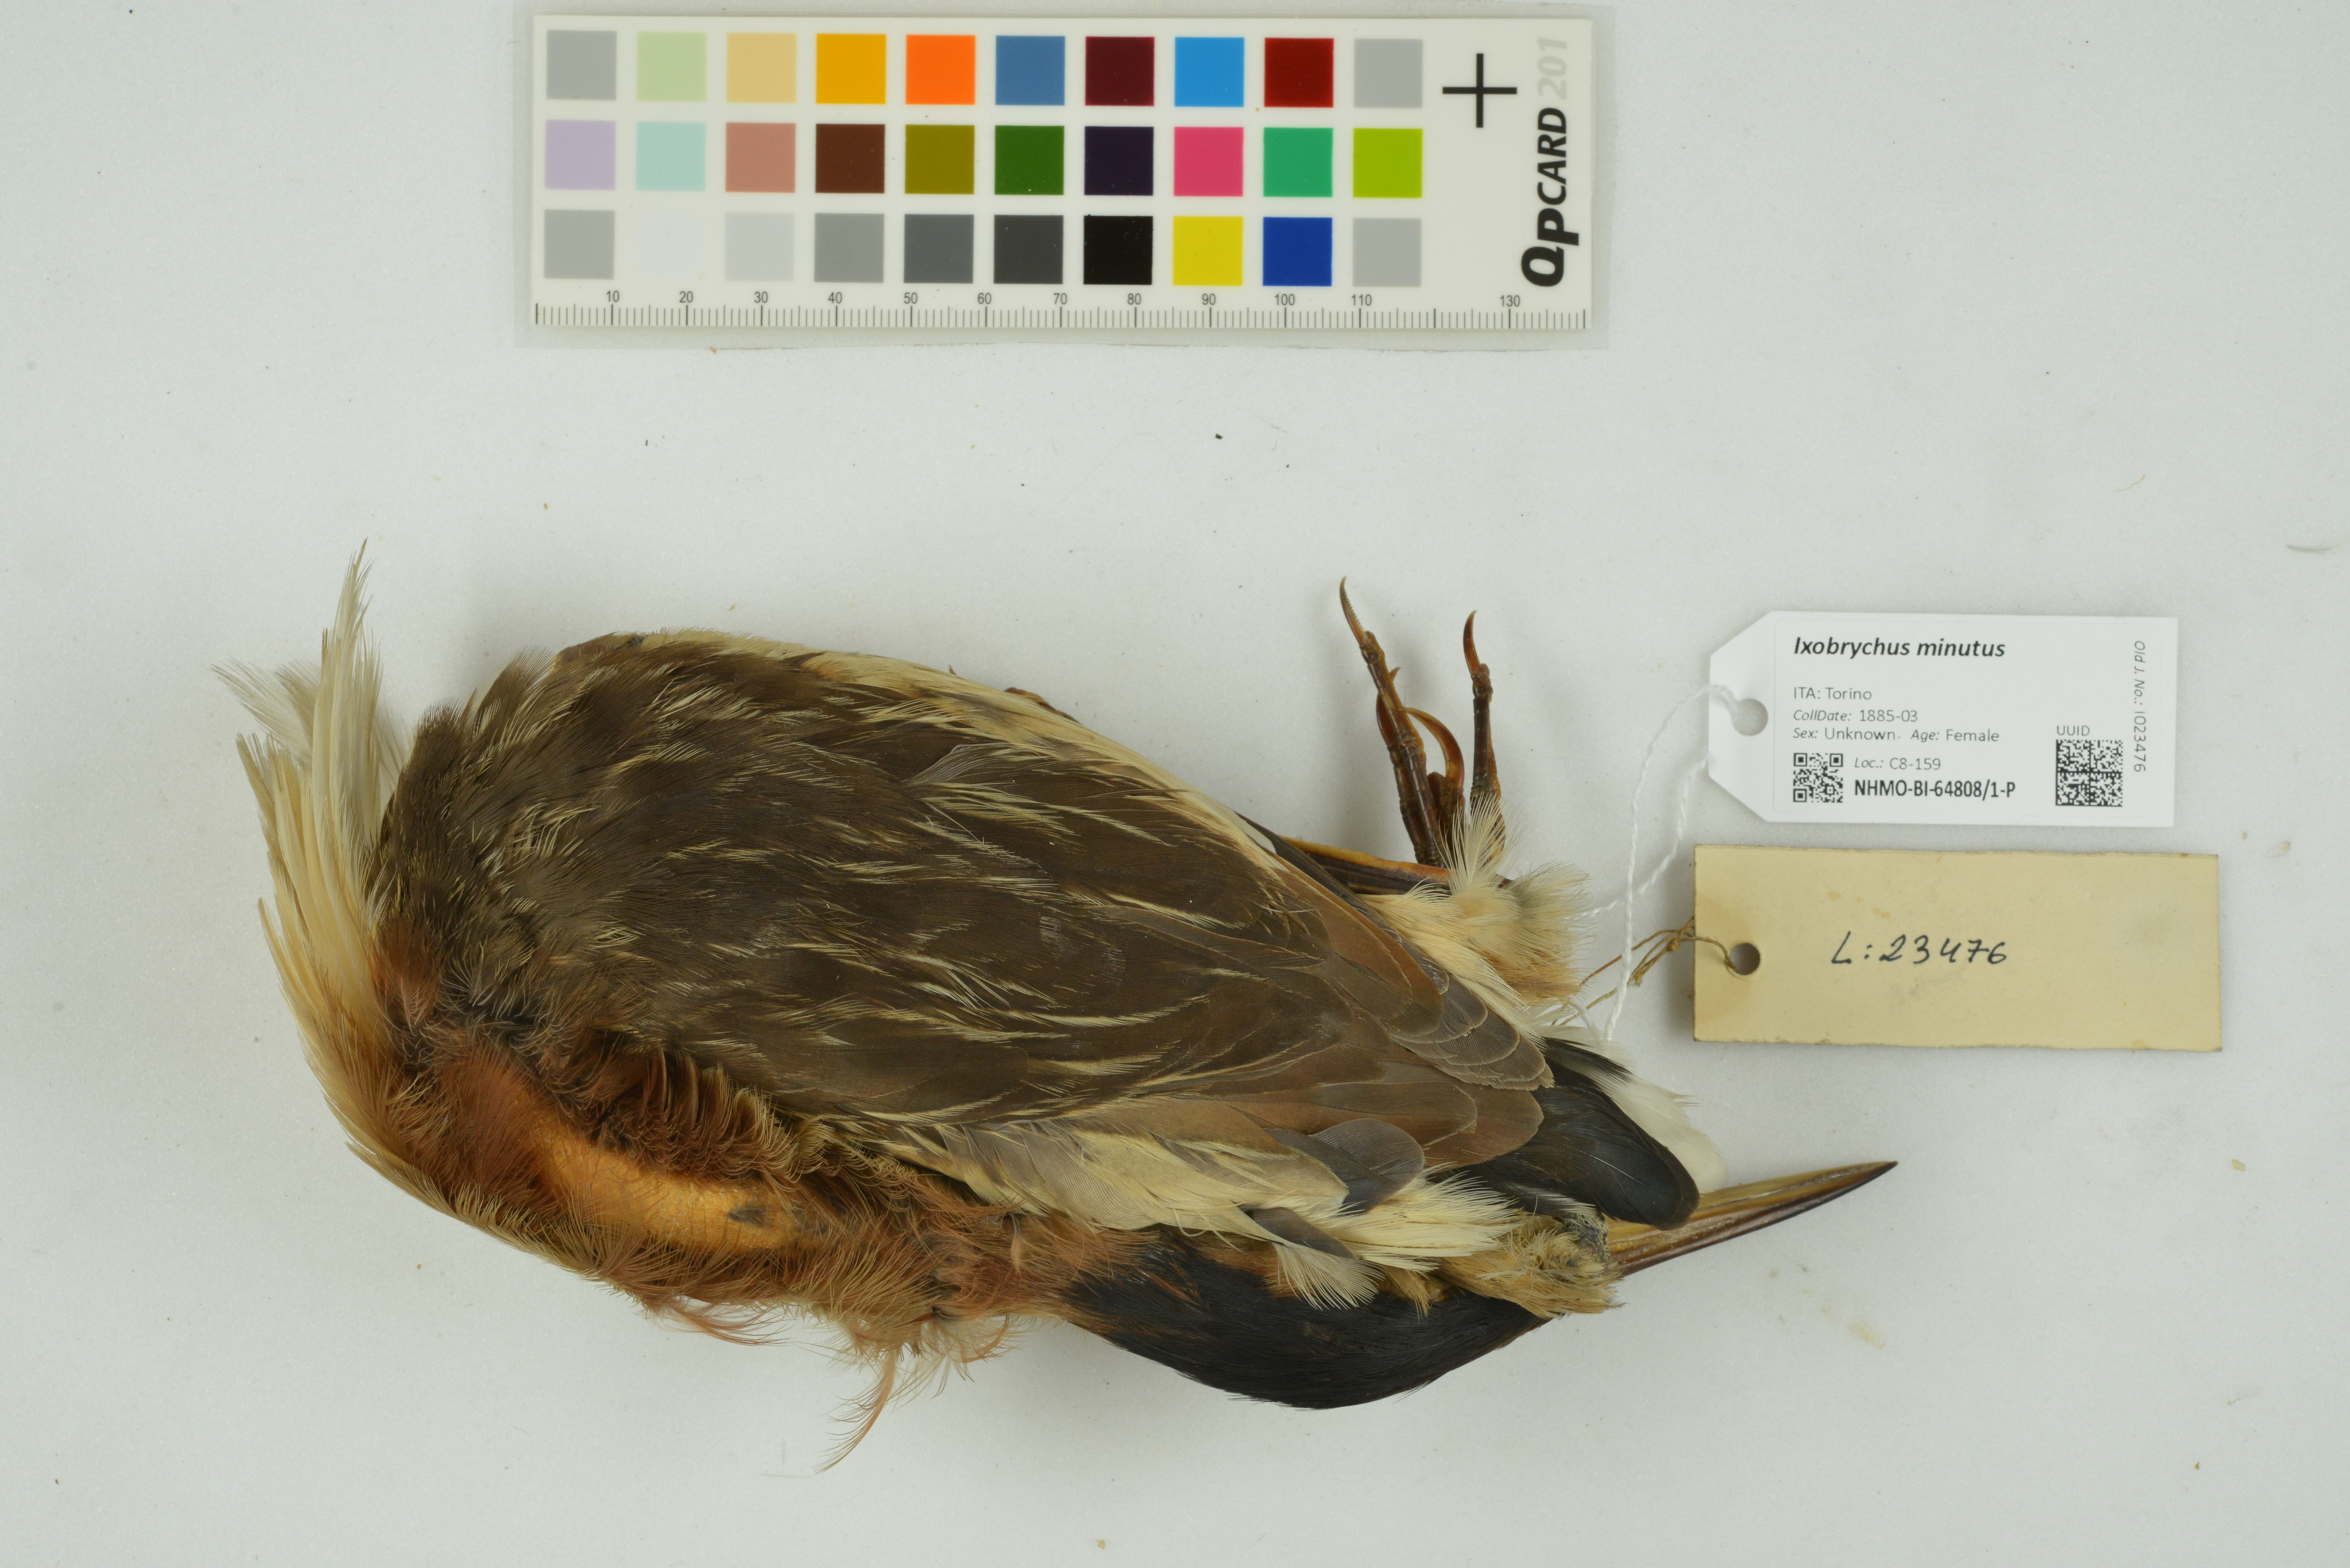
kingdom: Animalia
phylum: Chordata
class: Aves
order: Pelecaniformes
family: Ardeidae
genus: Ixobrychus
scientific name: Ixobrychus minutus
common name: Little bittern
